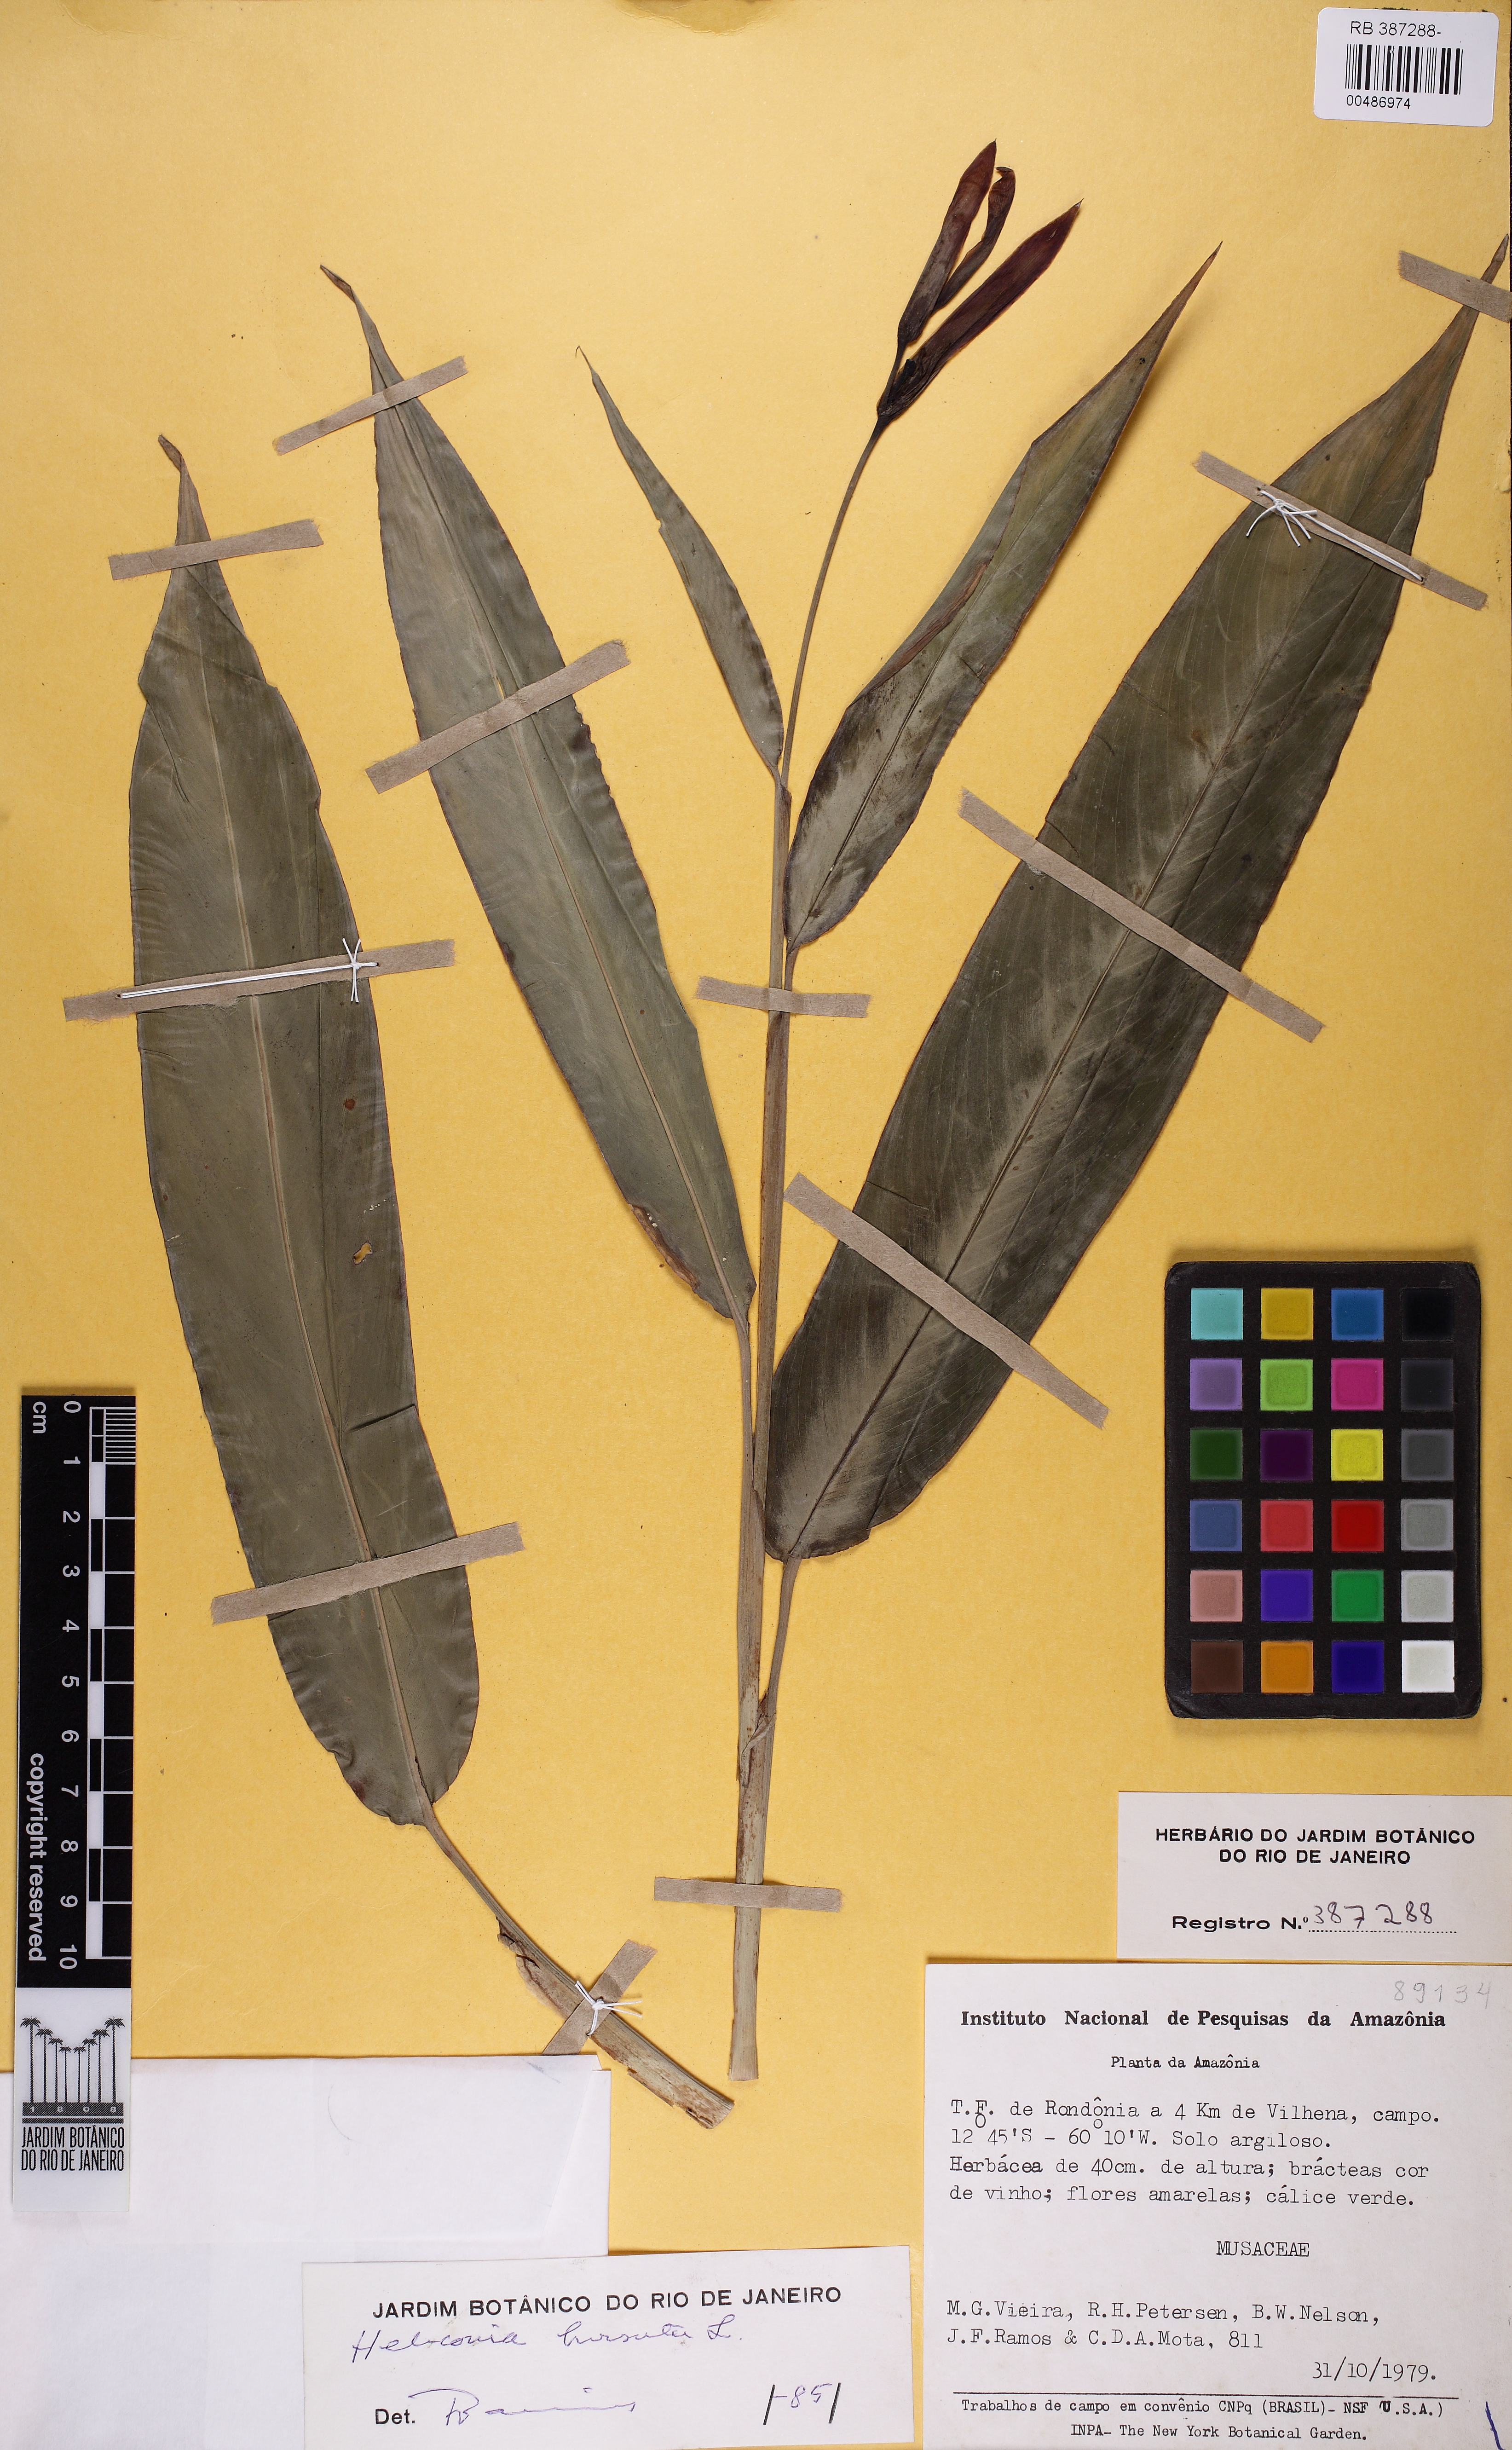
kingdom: Plantae
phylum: Tracheophyta
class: Liliopsida
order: Zingiberales
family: Heliconiaceae
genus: Heliconia
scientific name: Heliconia hirsuta
